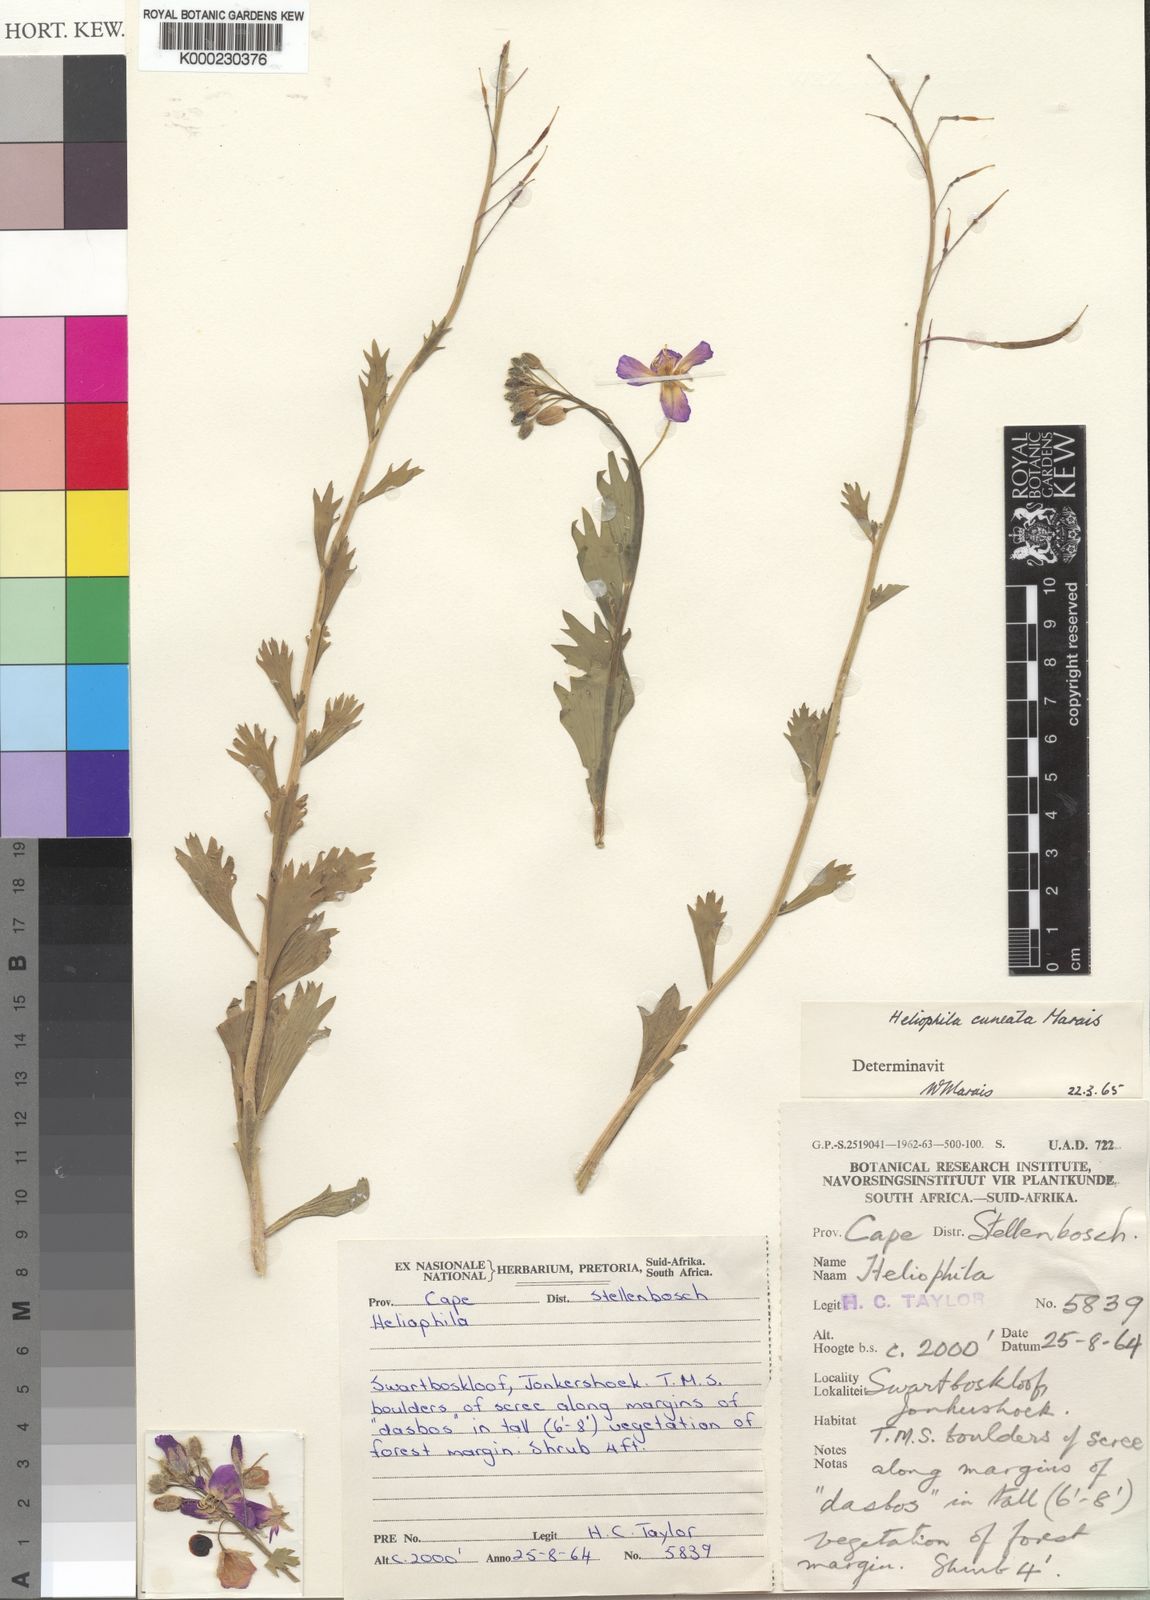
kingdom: Plantae
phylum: Tracheophyta
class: Magnoliopsida
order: Brassicales
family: Brassicaceae
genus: Heliophila
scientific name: Heliophila cuneata
